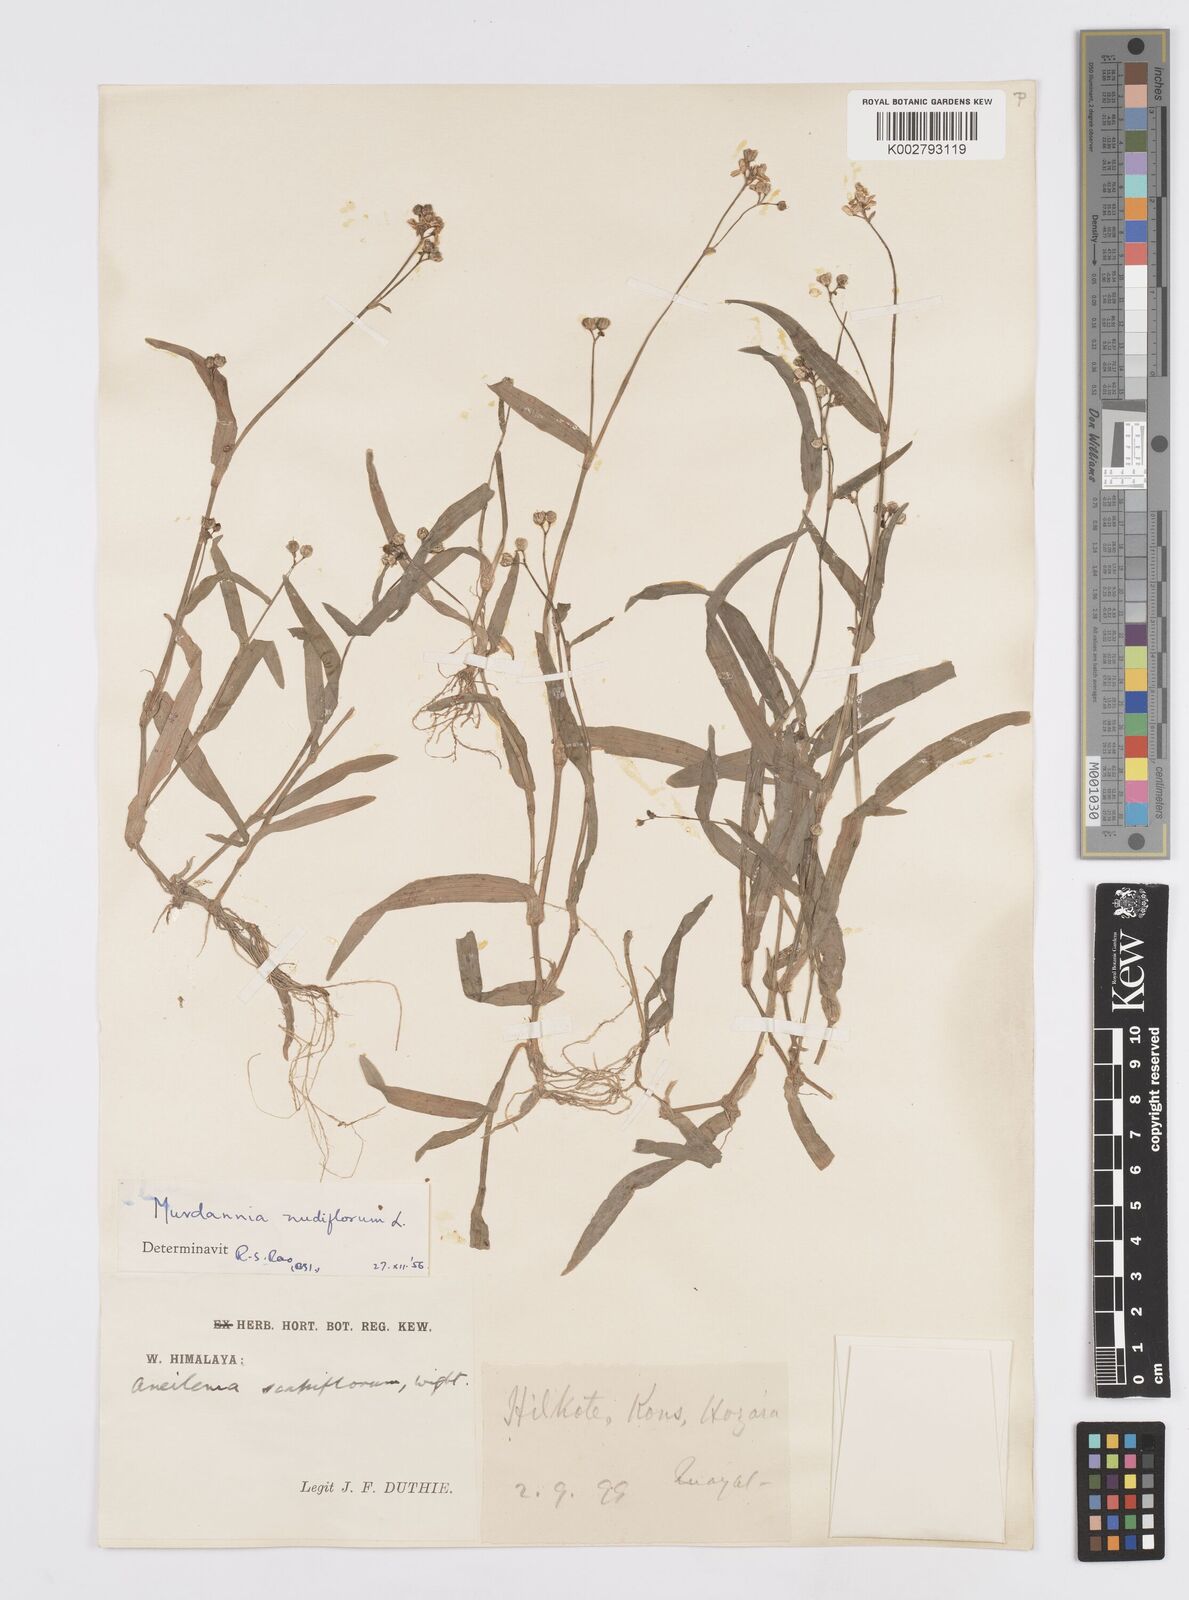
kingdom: Plantae
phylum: Tracheophyta
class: Liliopsida
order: Commelinales
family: Commelinaceae
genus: Murdannia
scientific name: Murdannia nudiflora
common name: Nakedstem dewflower
